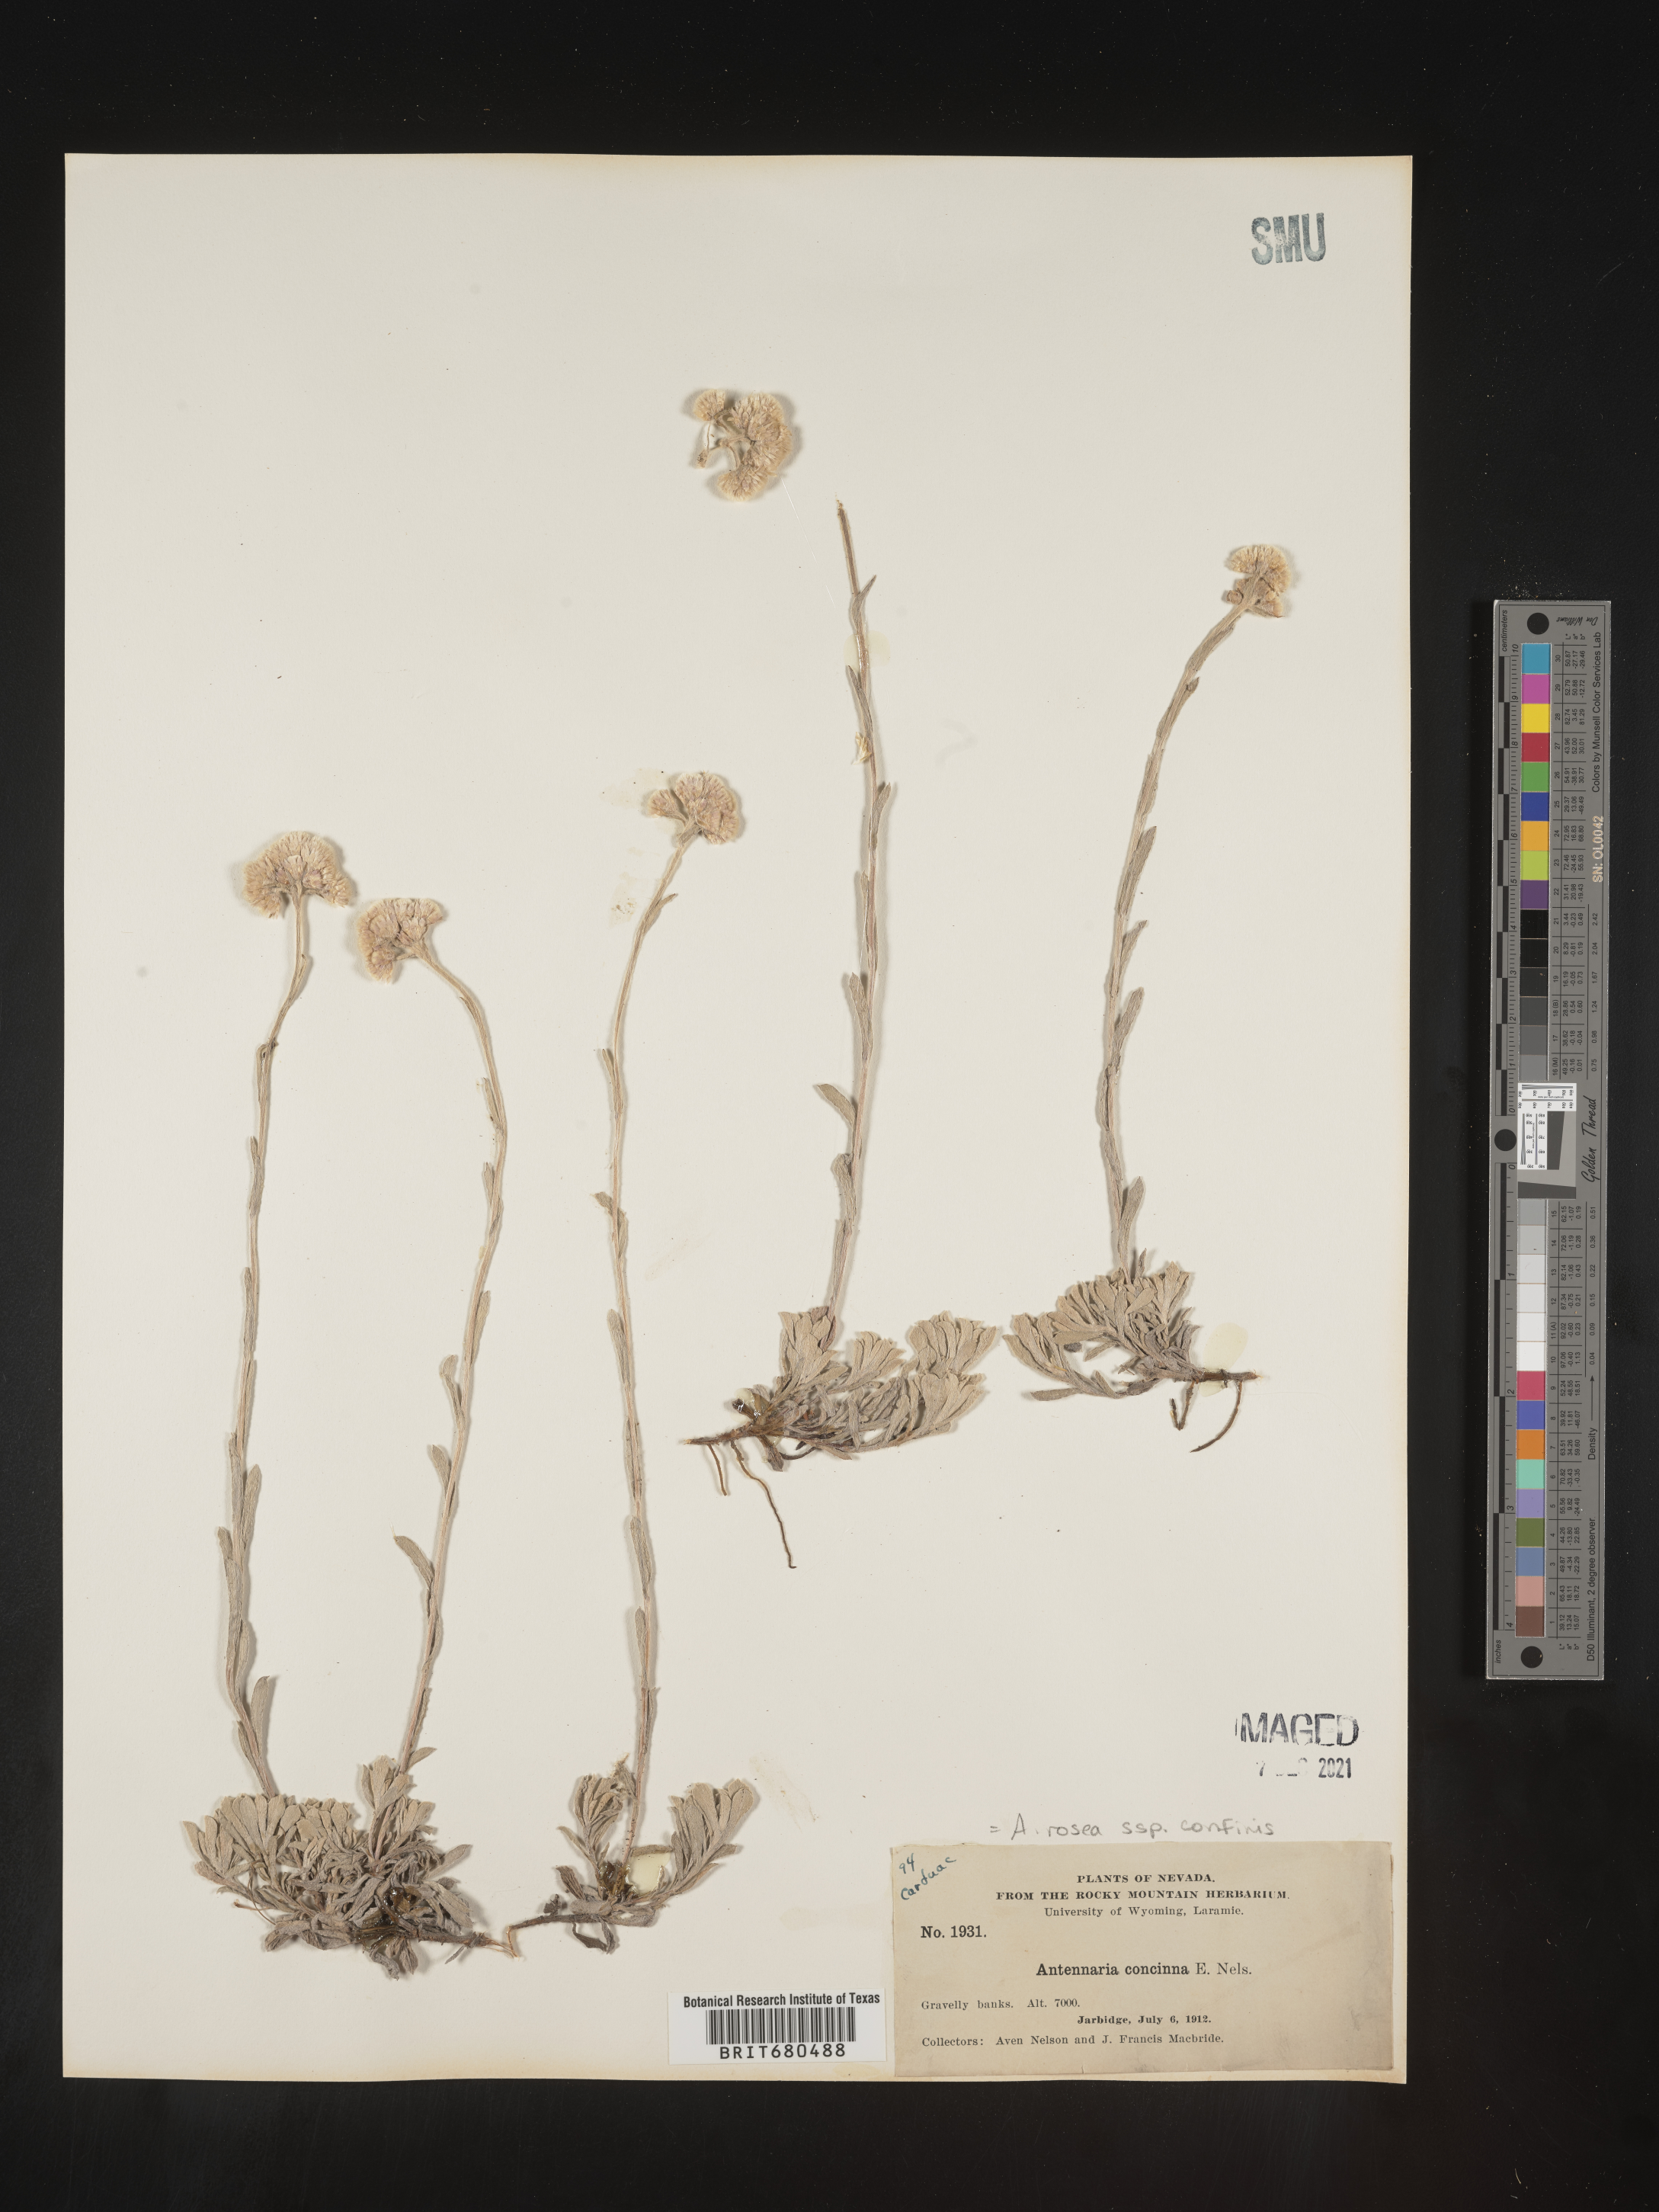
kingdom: Plantae
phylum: Tracheophyta
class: Magnoliopsida
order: Asterales
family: Asteraceae
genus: Antennaria
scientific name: Antennaria rosea
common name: Rosy pussytoes
